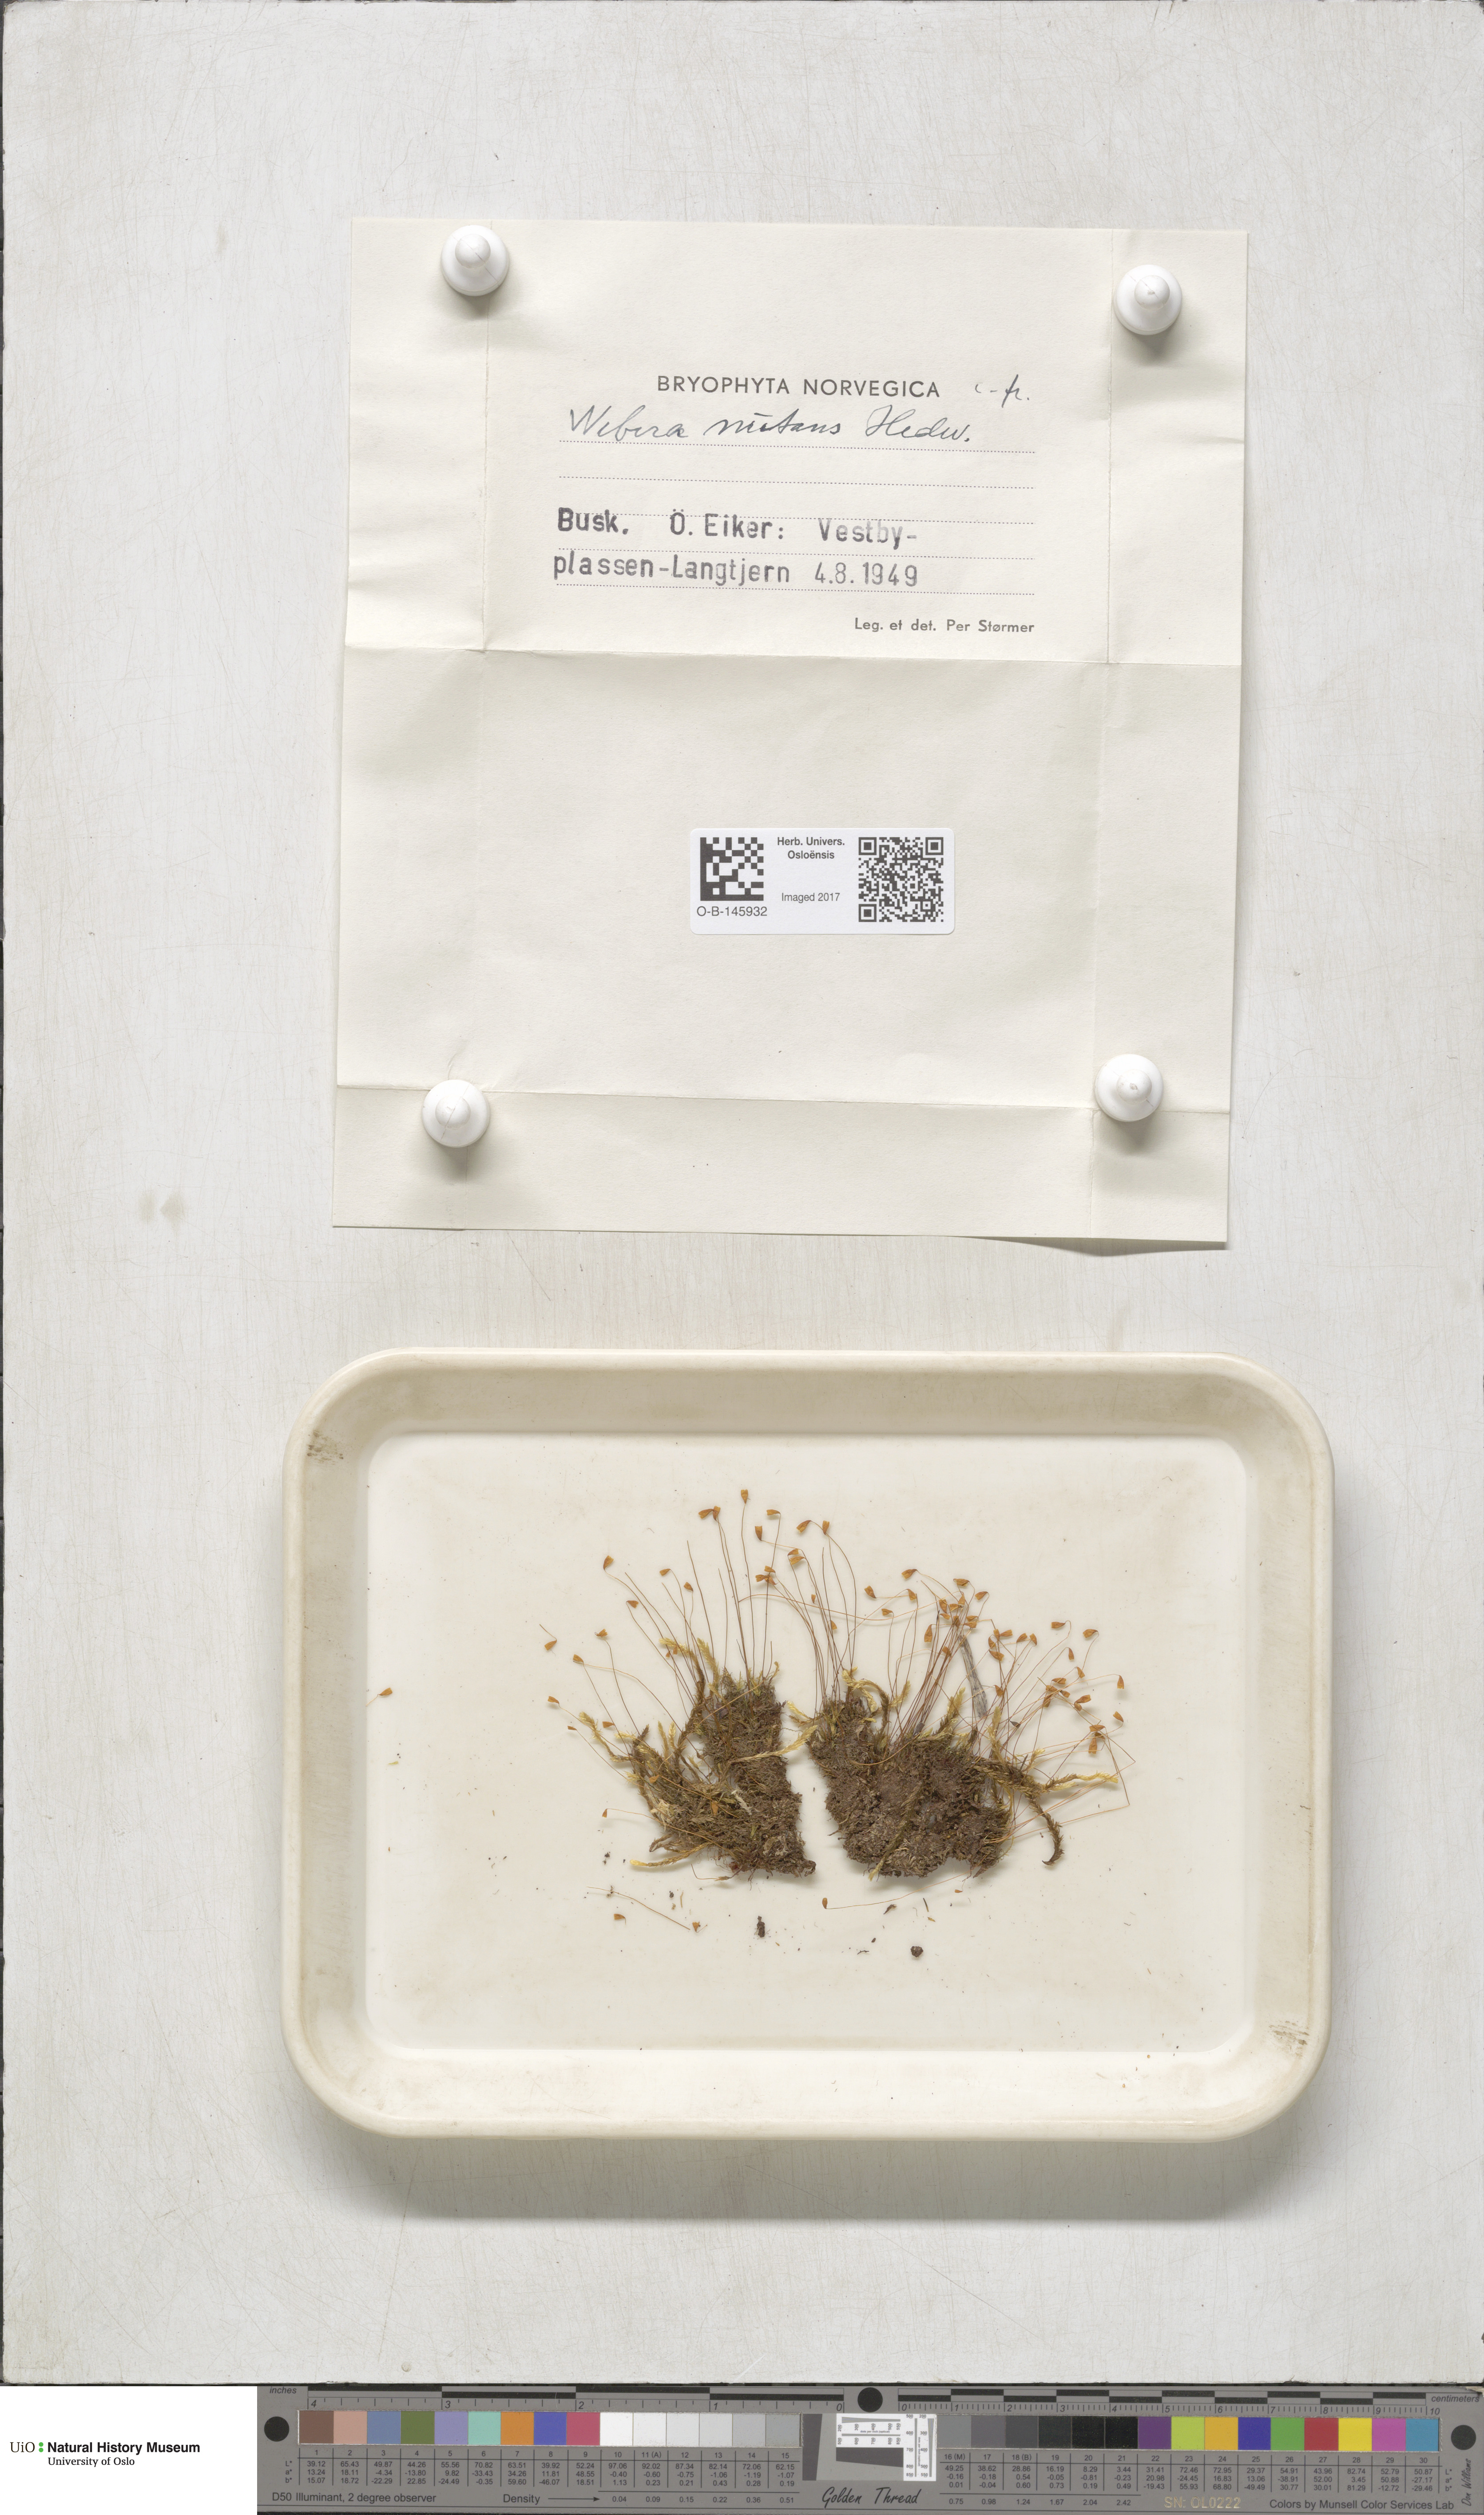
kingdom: Plantae
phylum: Bryophyta
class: Bryopsida
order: Bryales
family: Mniaceae
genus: Pohlia
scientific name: Pohlia nutans
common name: Nodding thread-moss
